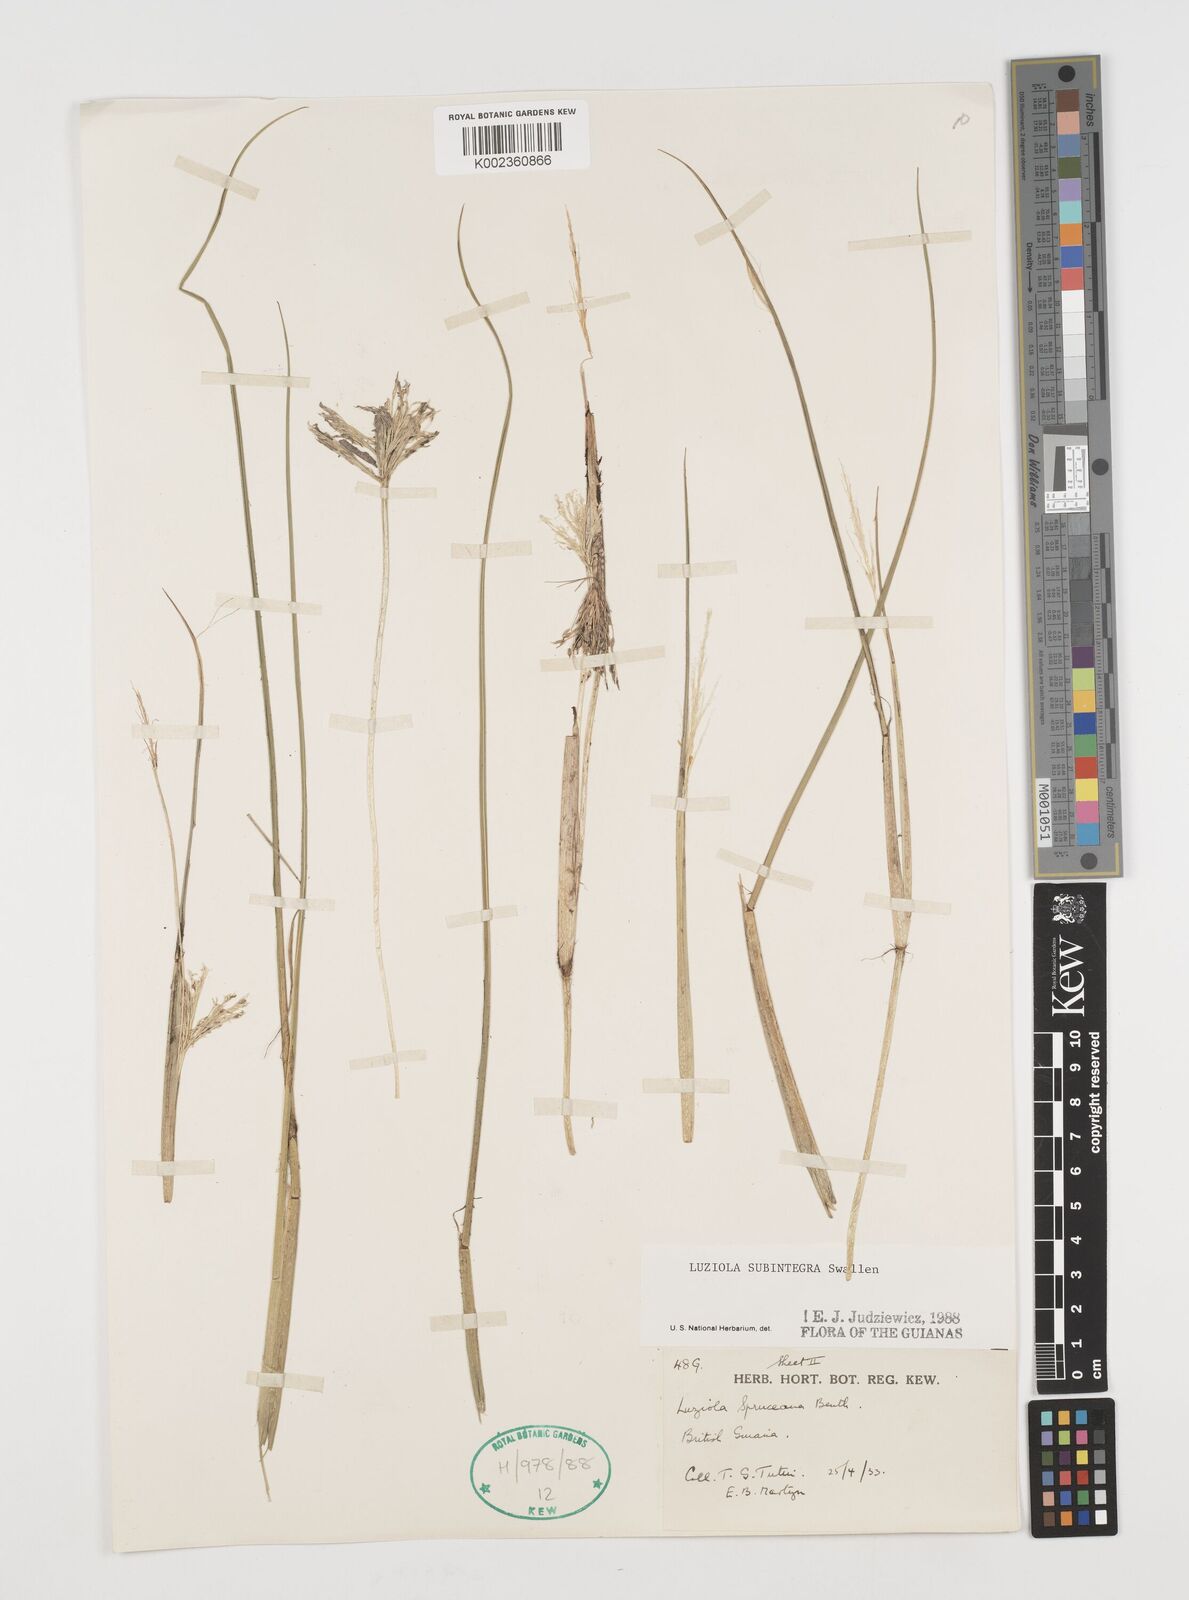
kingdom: Plantae
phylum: Tracheophyta
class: Liliopsida
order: Poales
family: Poaceae
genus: Luziola
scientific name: Luziola subintegra
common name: Large watergrass
